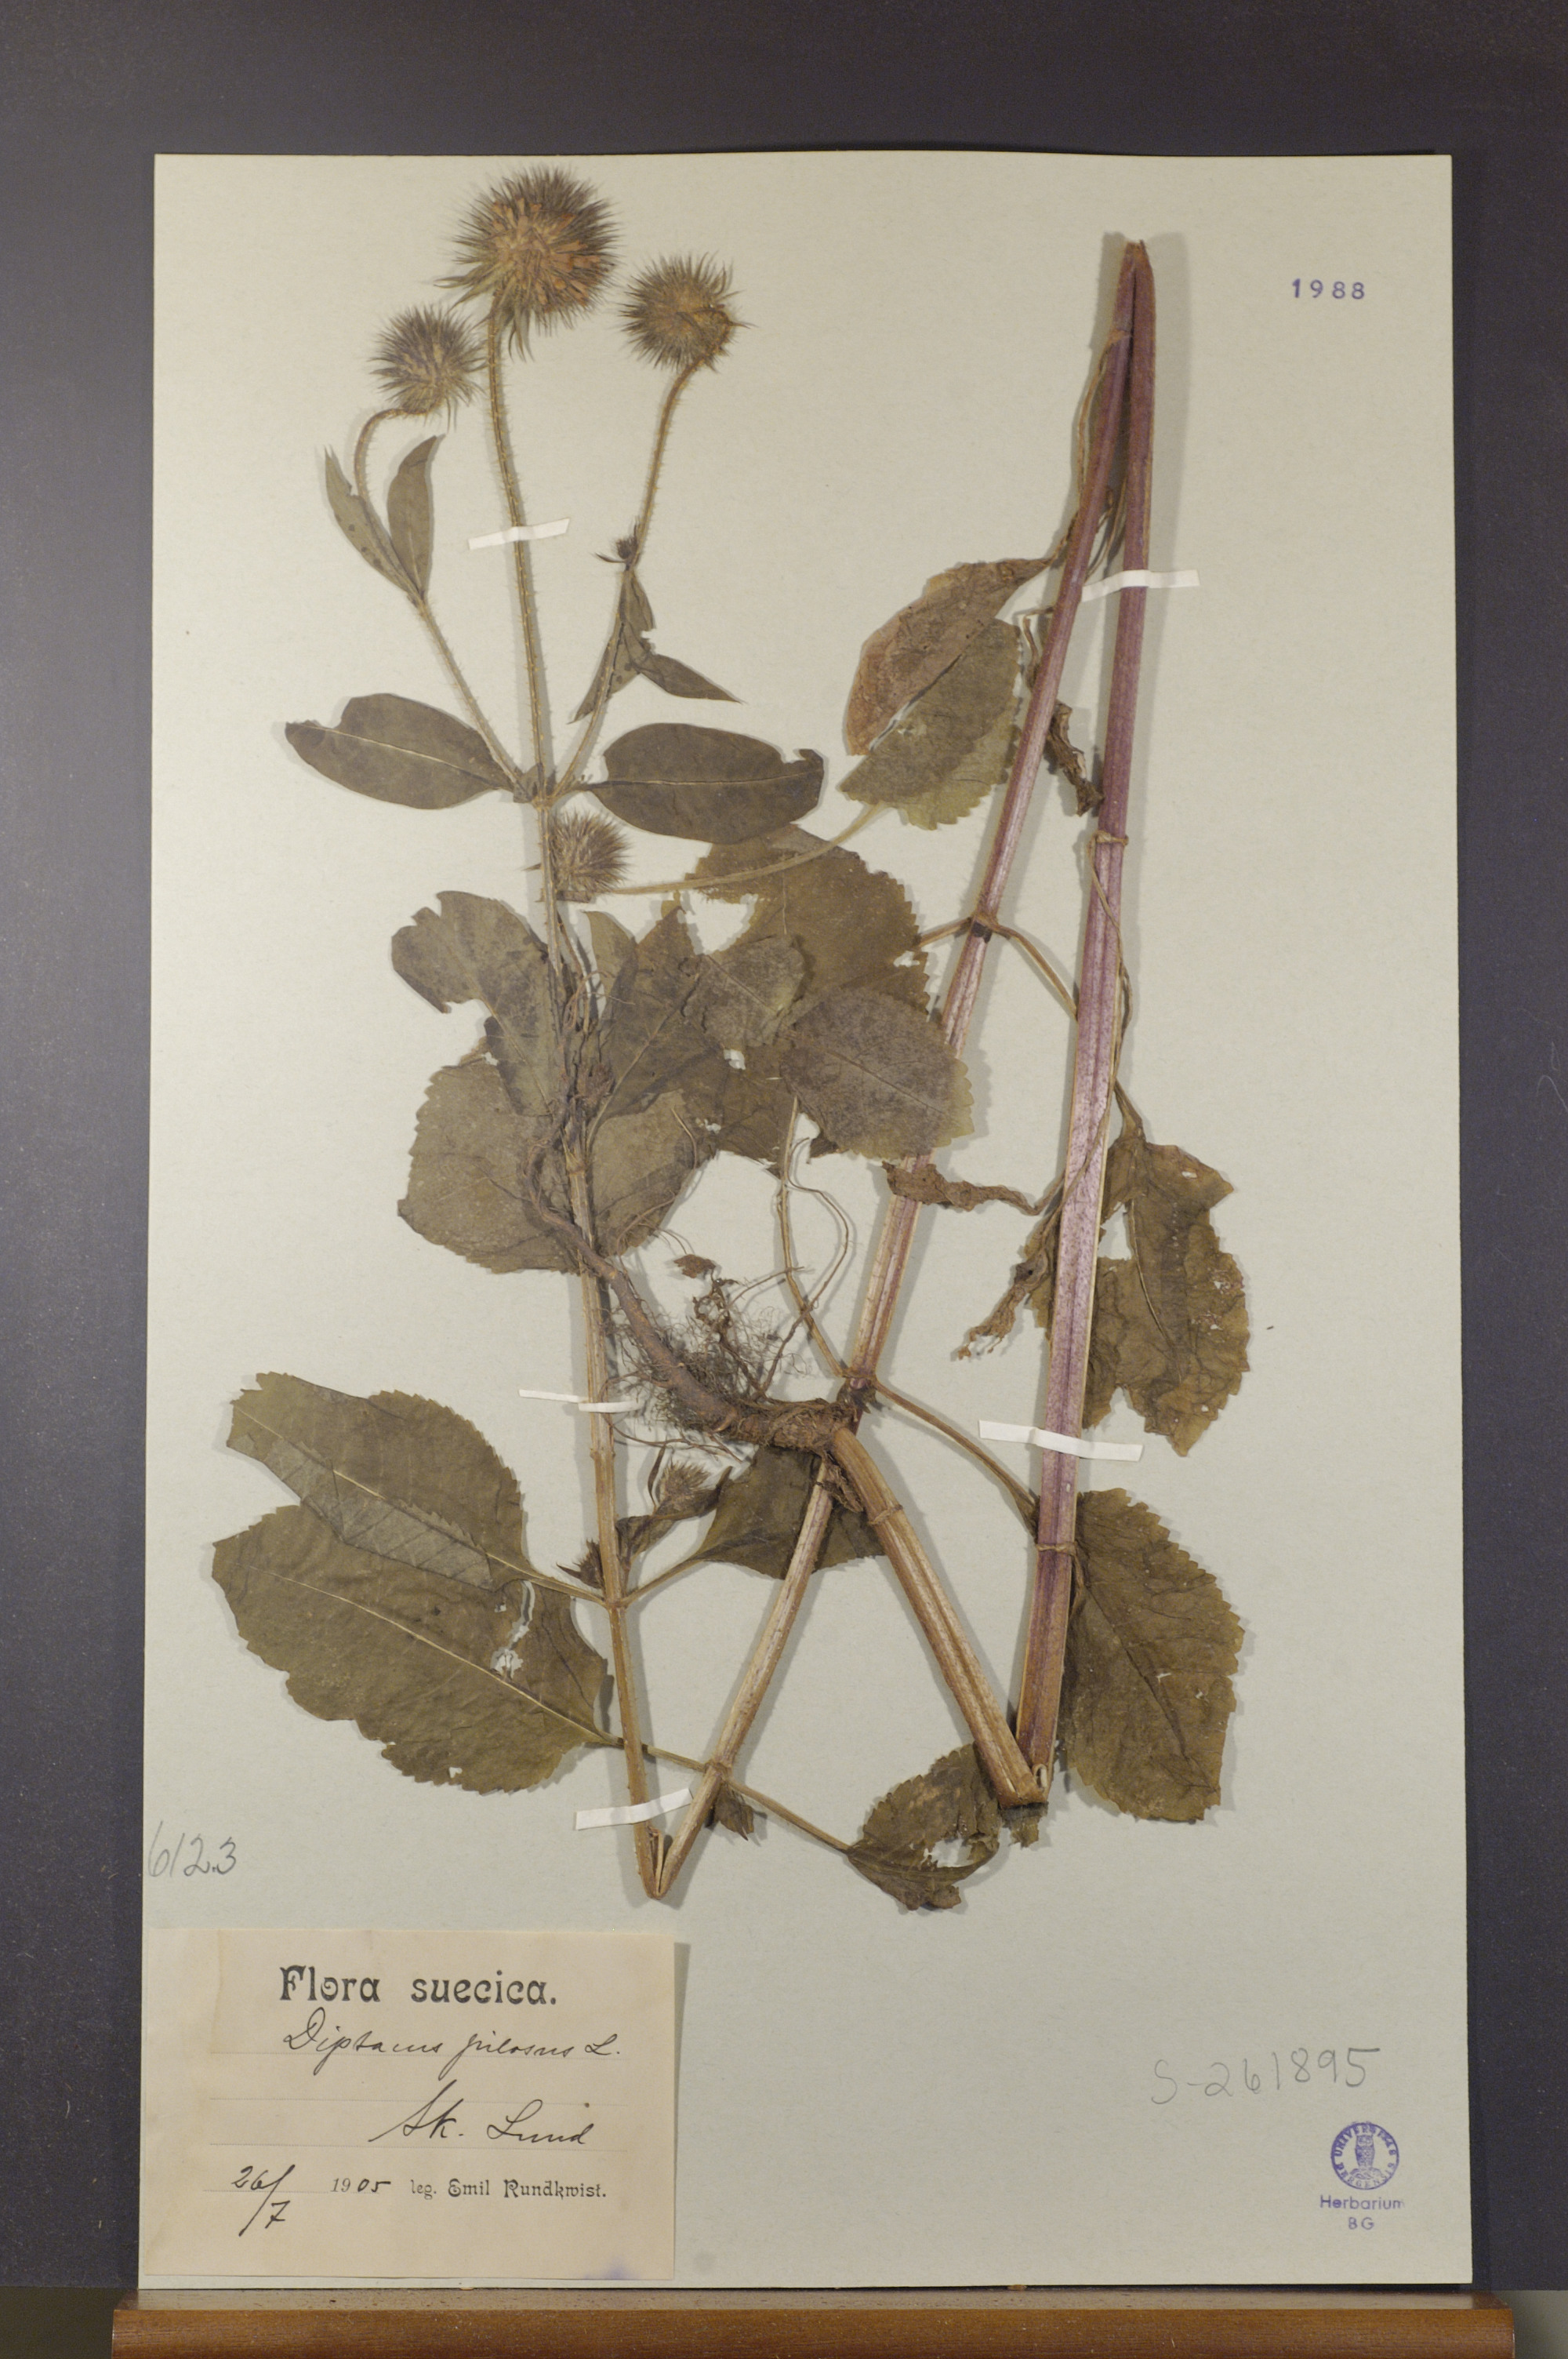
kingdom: Plantae
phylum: Tracheophyta
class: Magnoliopsida
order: Dipsacales
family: Caprifoliaceae
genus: Dipsacus
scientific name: Dipsacus pilosus
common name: Small teasel
